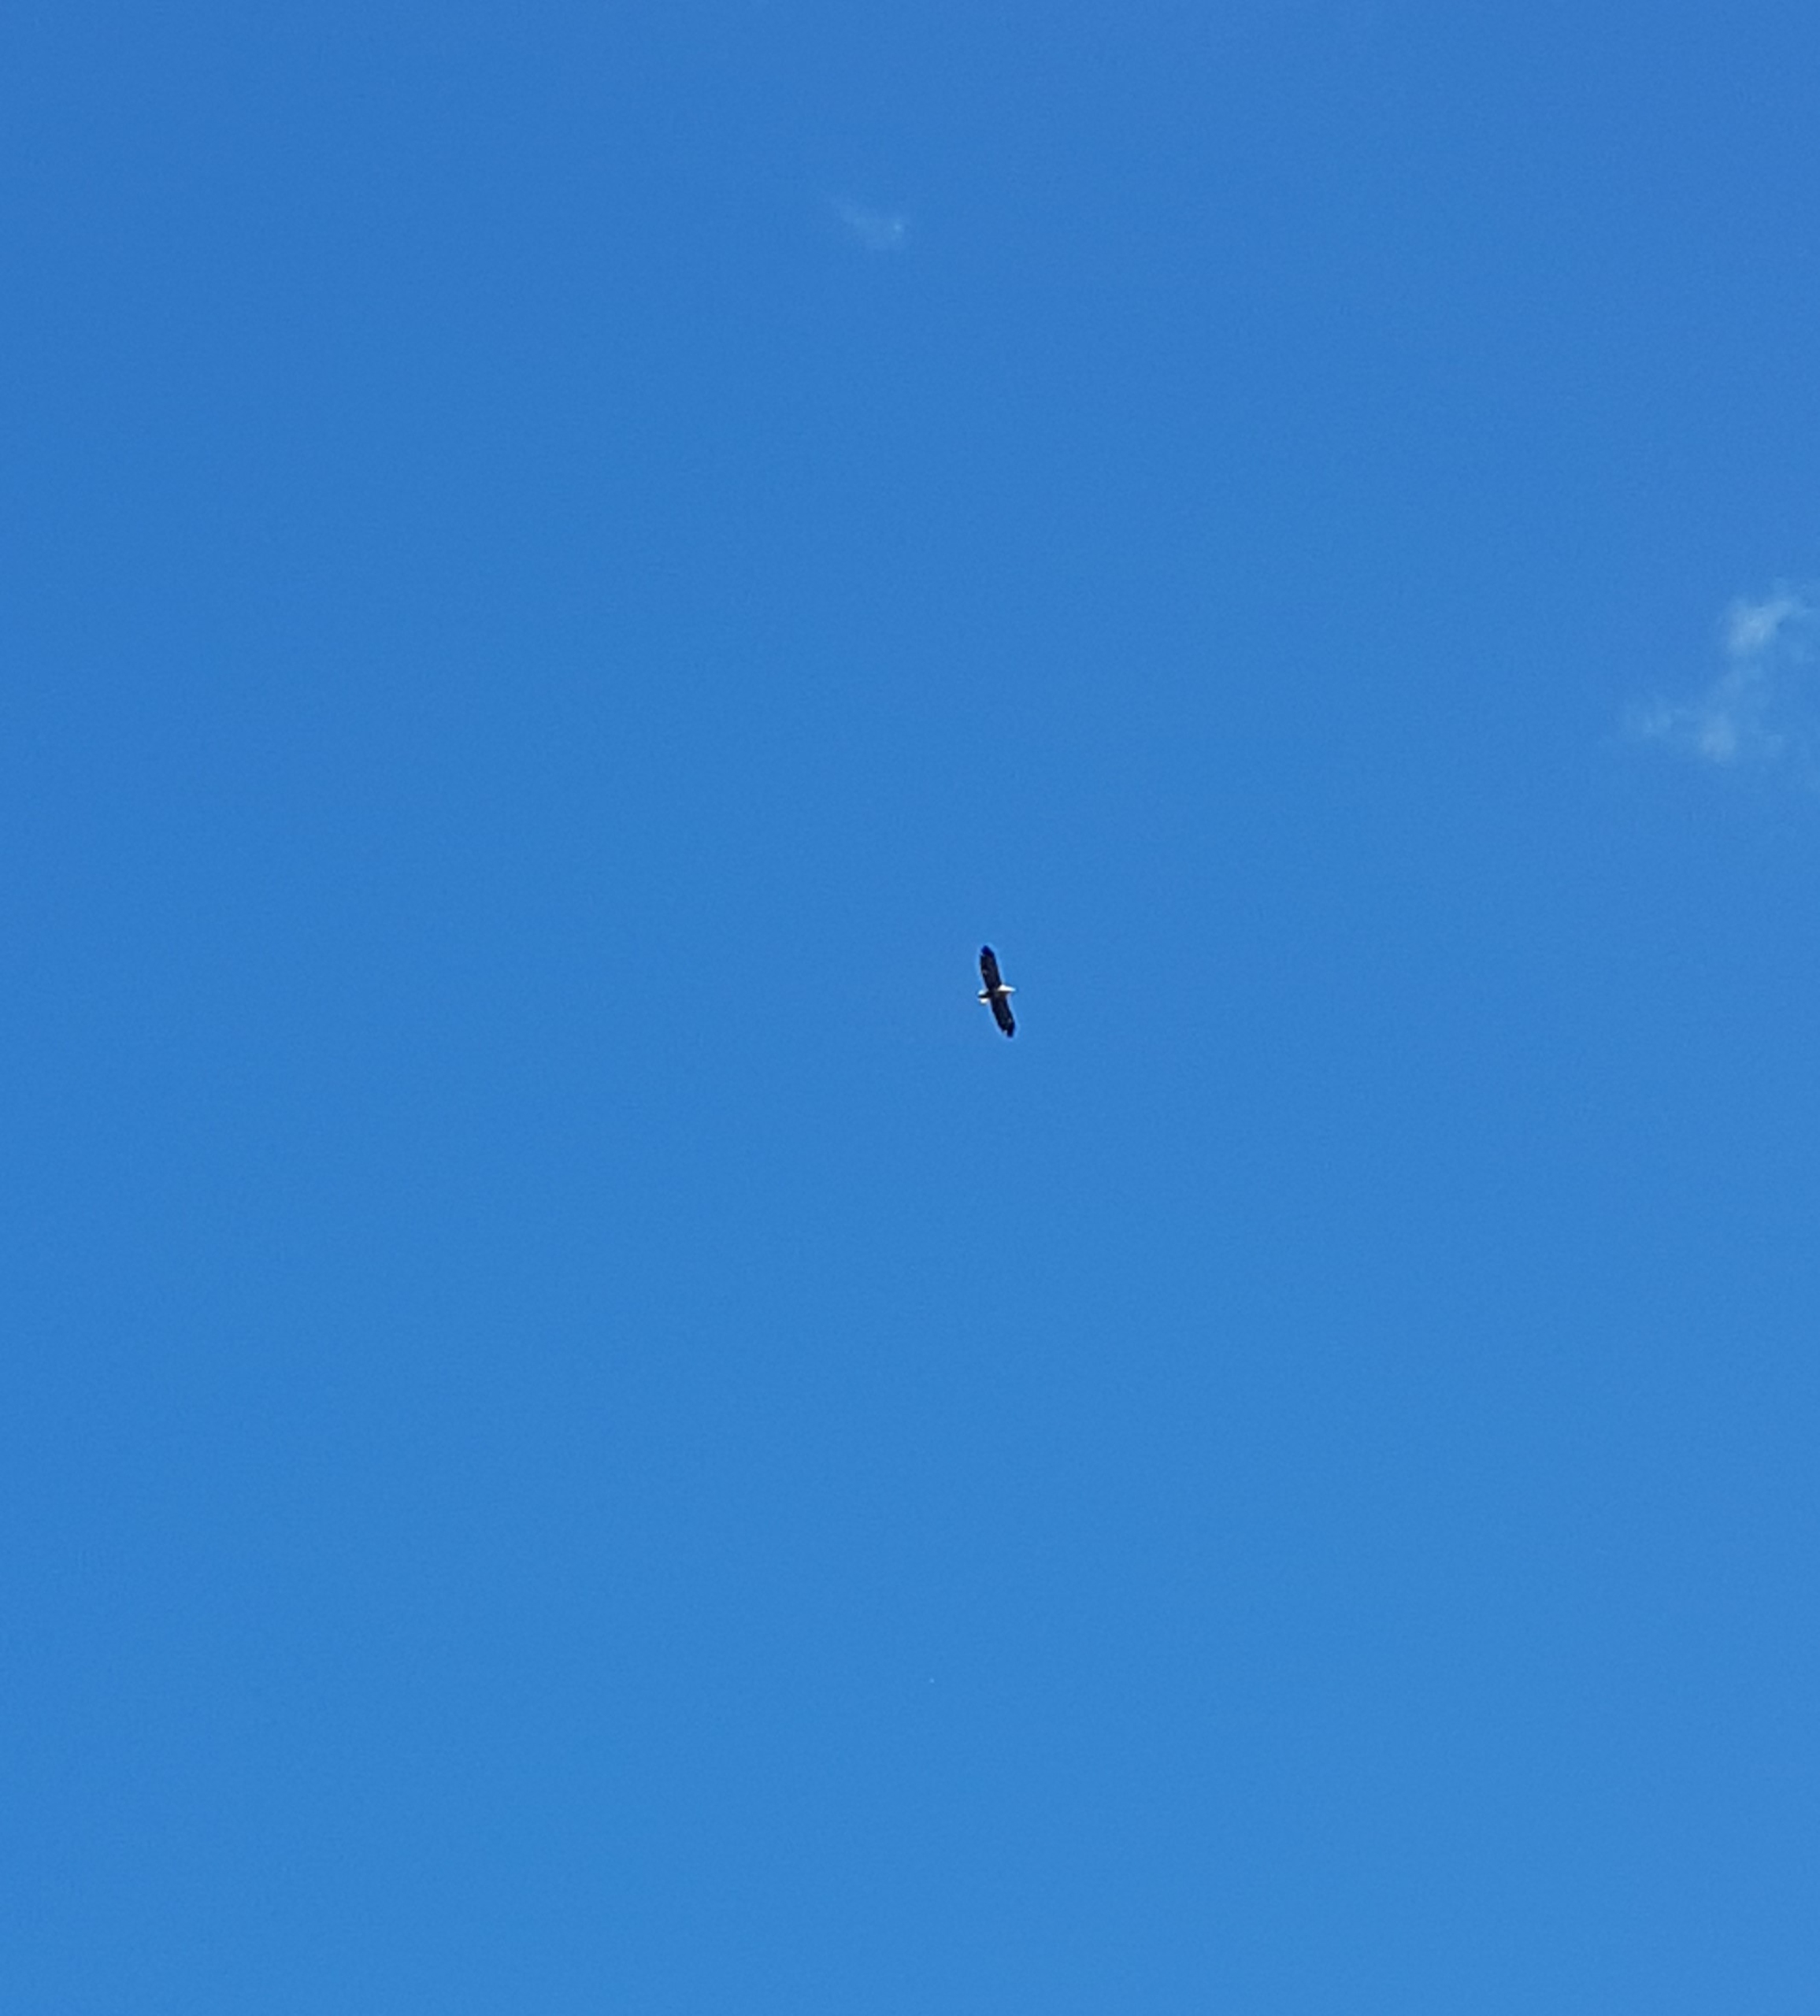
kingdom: Animalia
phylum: Chordata
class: Aves
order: Accipitriformes
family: Accipitridae
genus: Haliaeetus
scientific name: Haliaeetus albicilla
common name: Havørn
